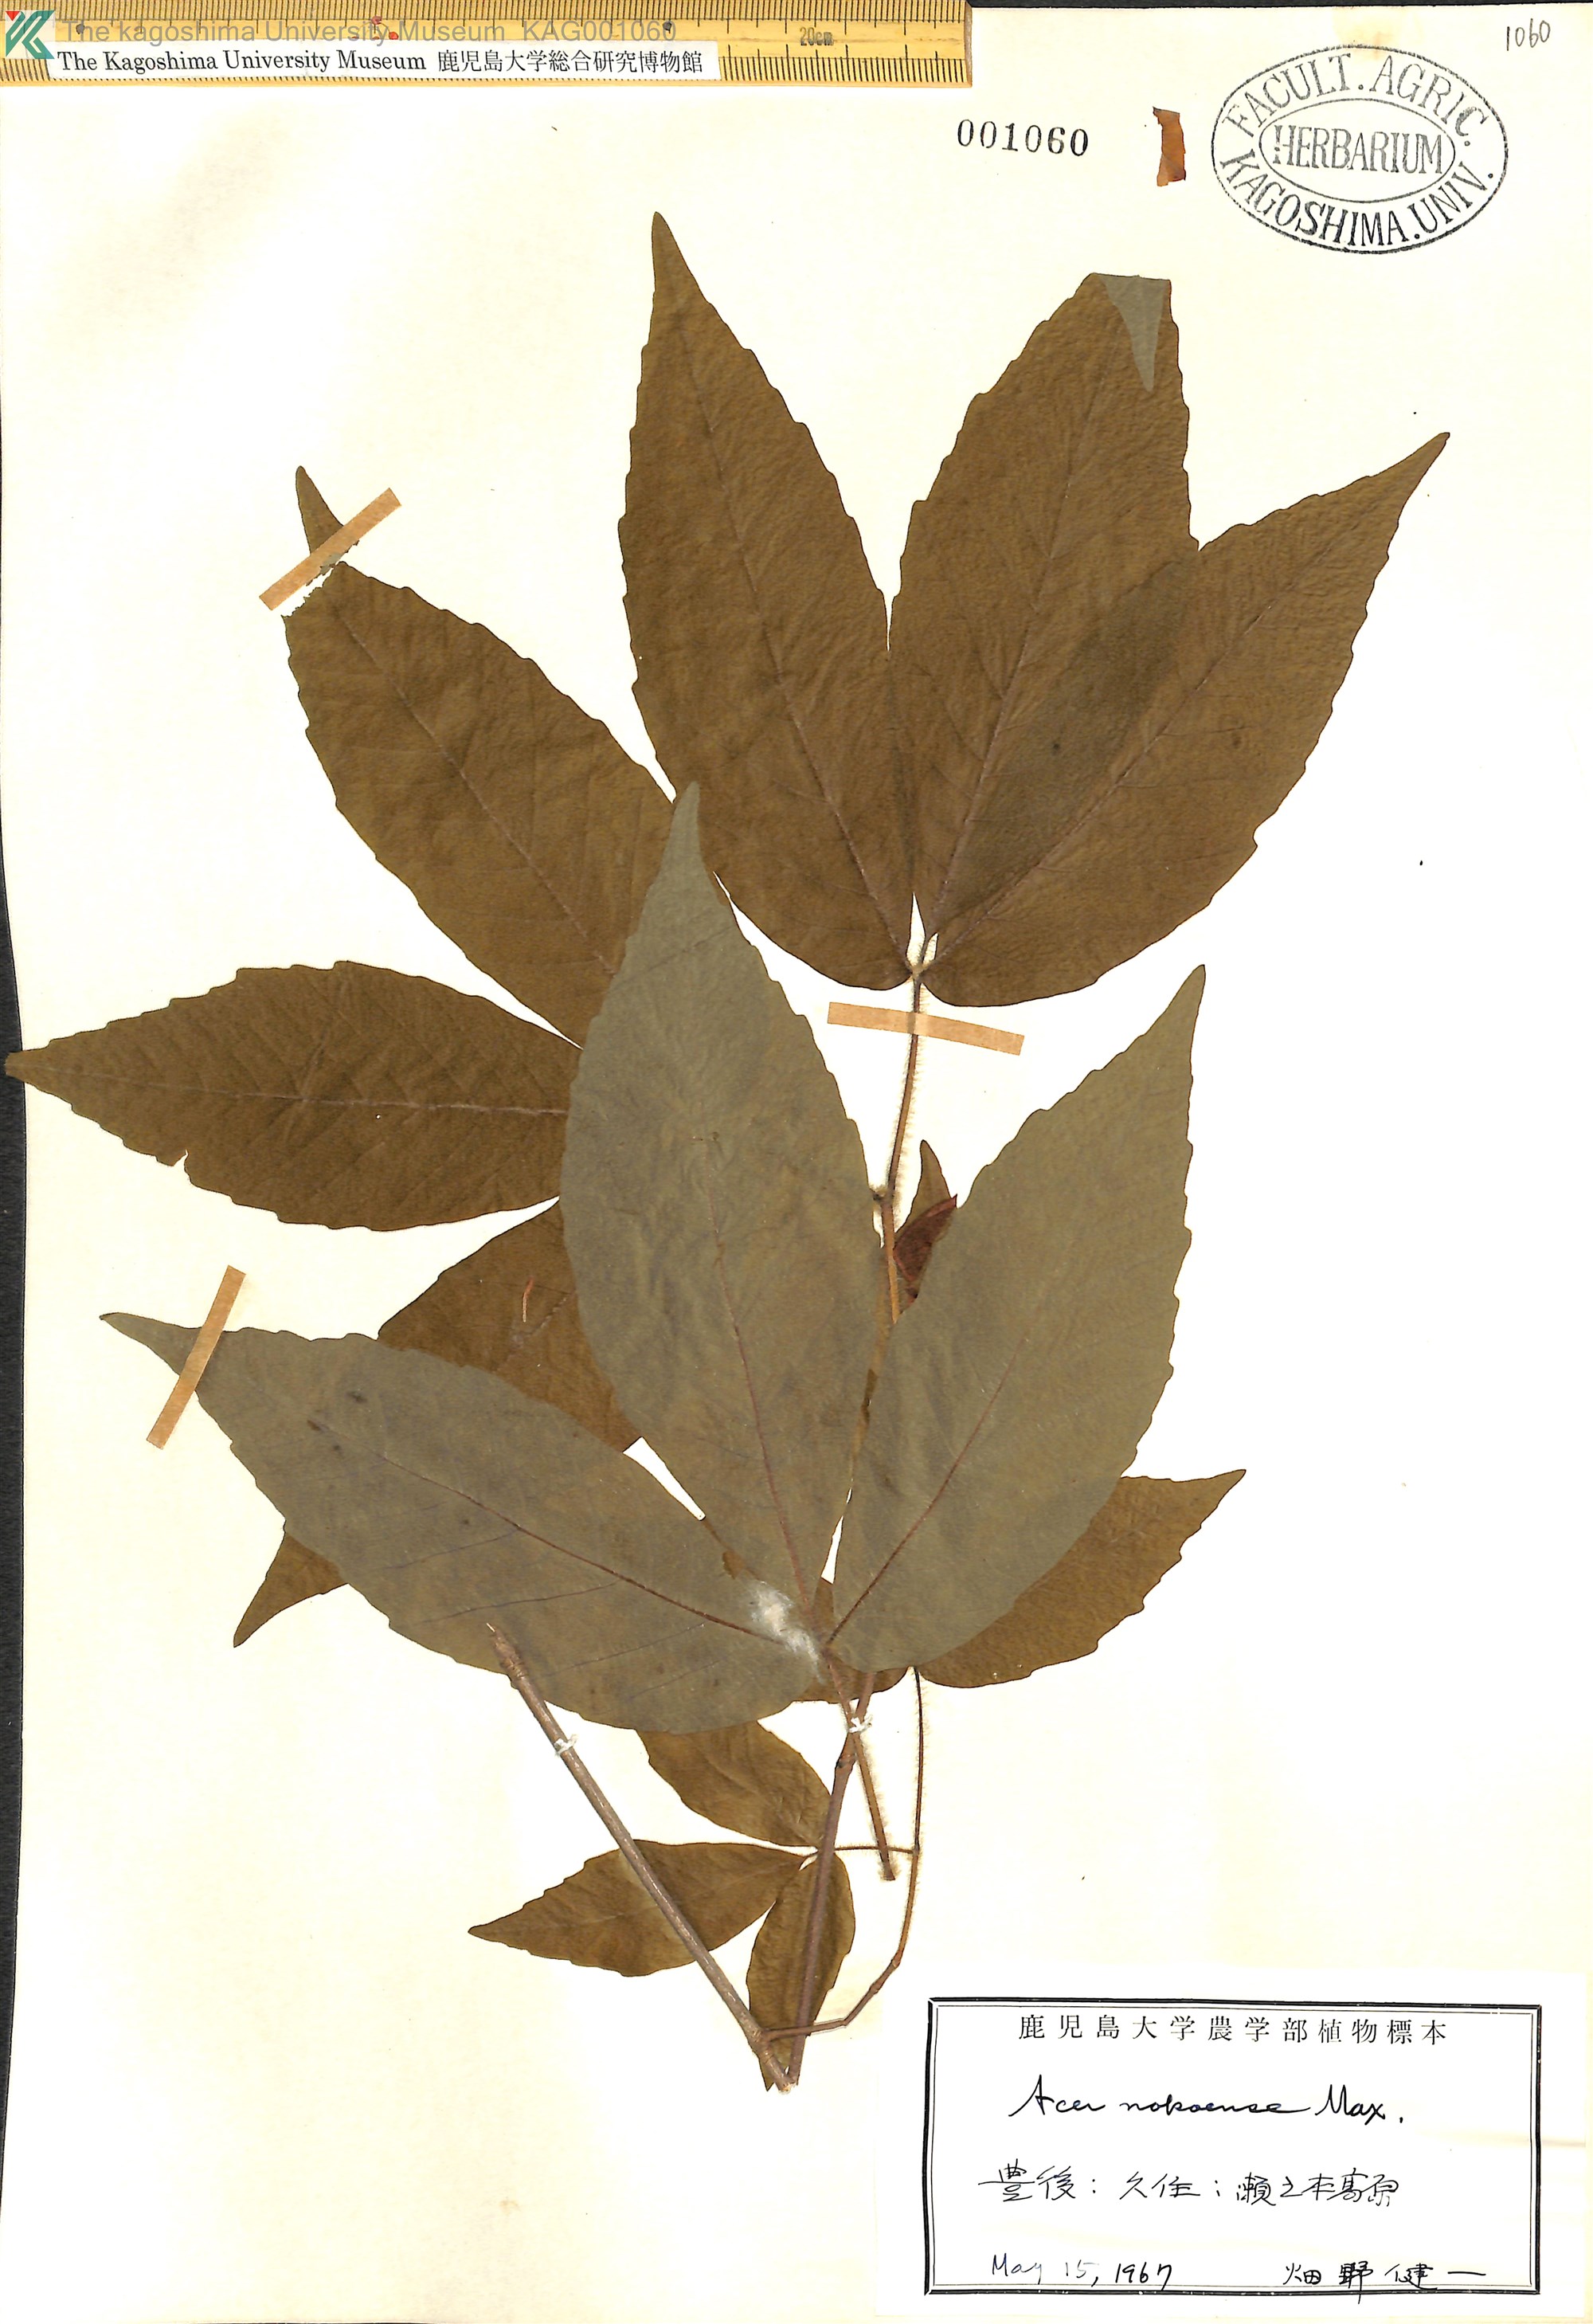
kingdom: Plantae
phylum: Tracheophyta
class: Magnoliopsida
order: Sapindales
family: Sapindaceae
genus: Acer
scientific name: Acer maximowiczianum
